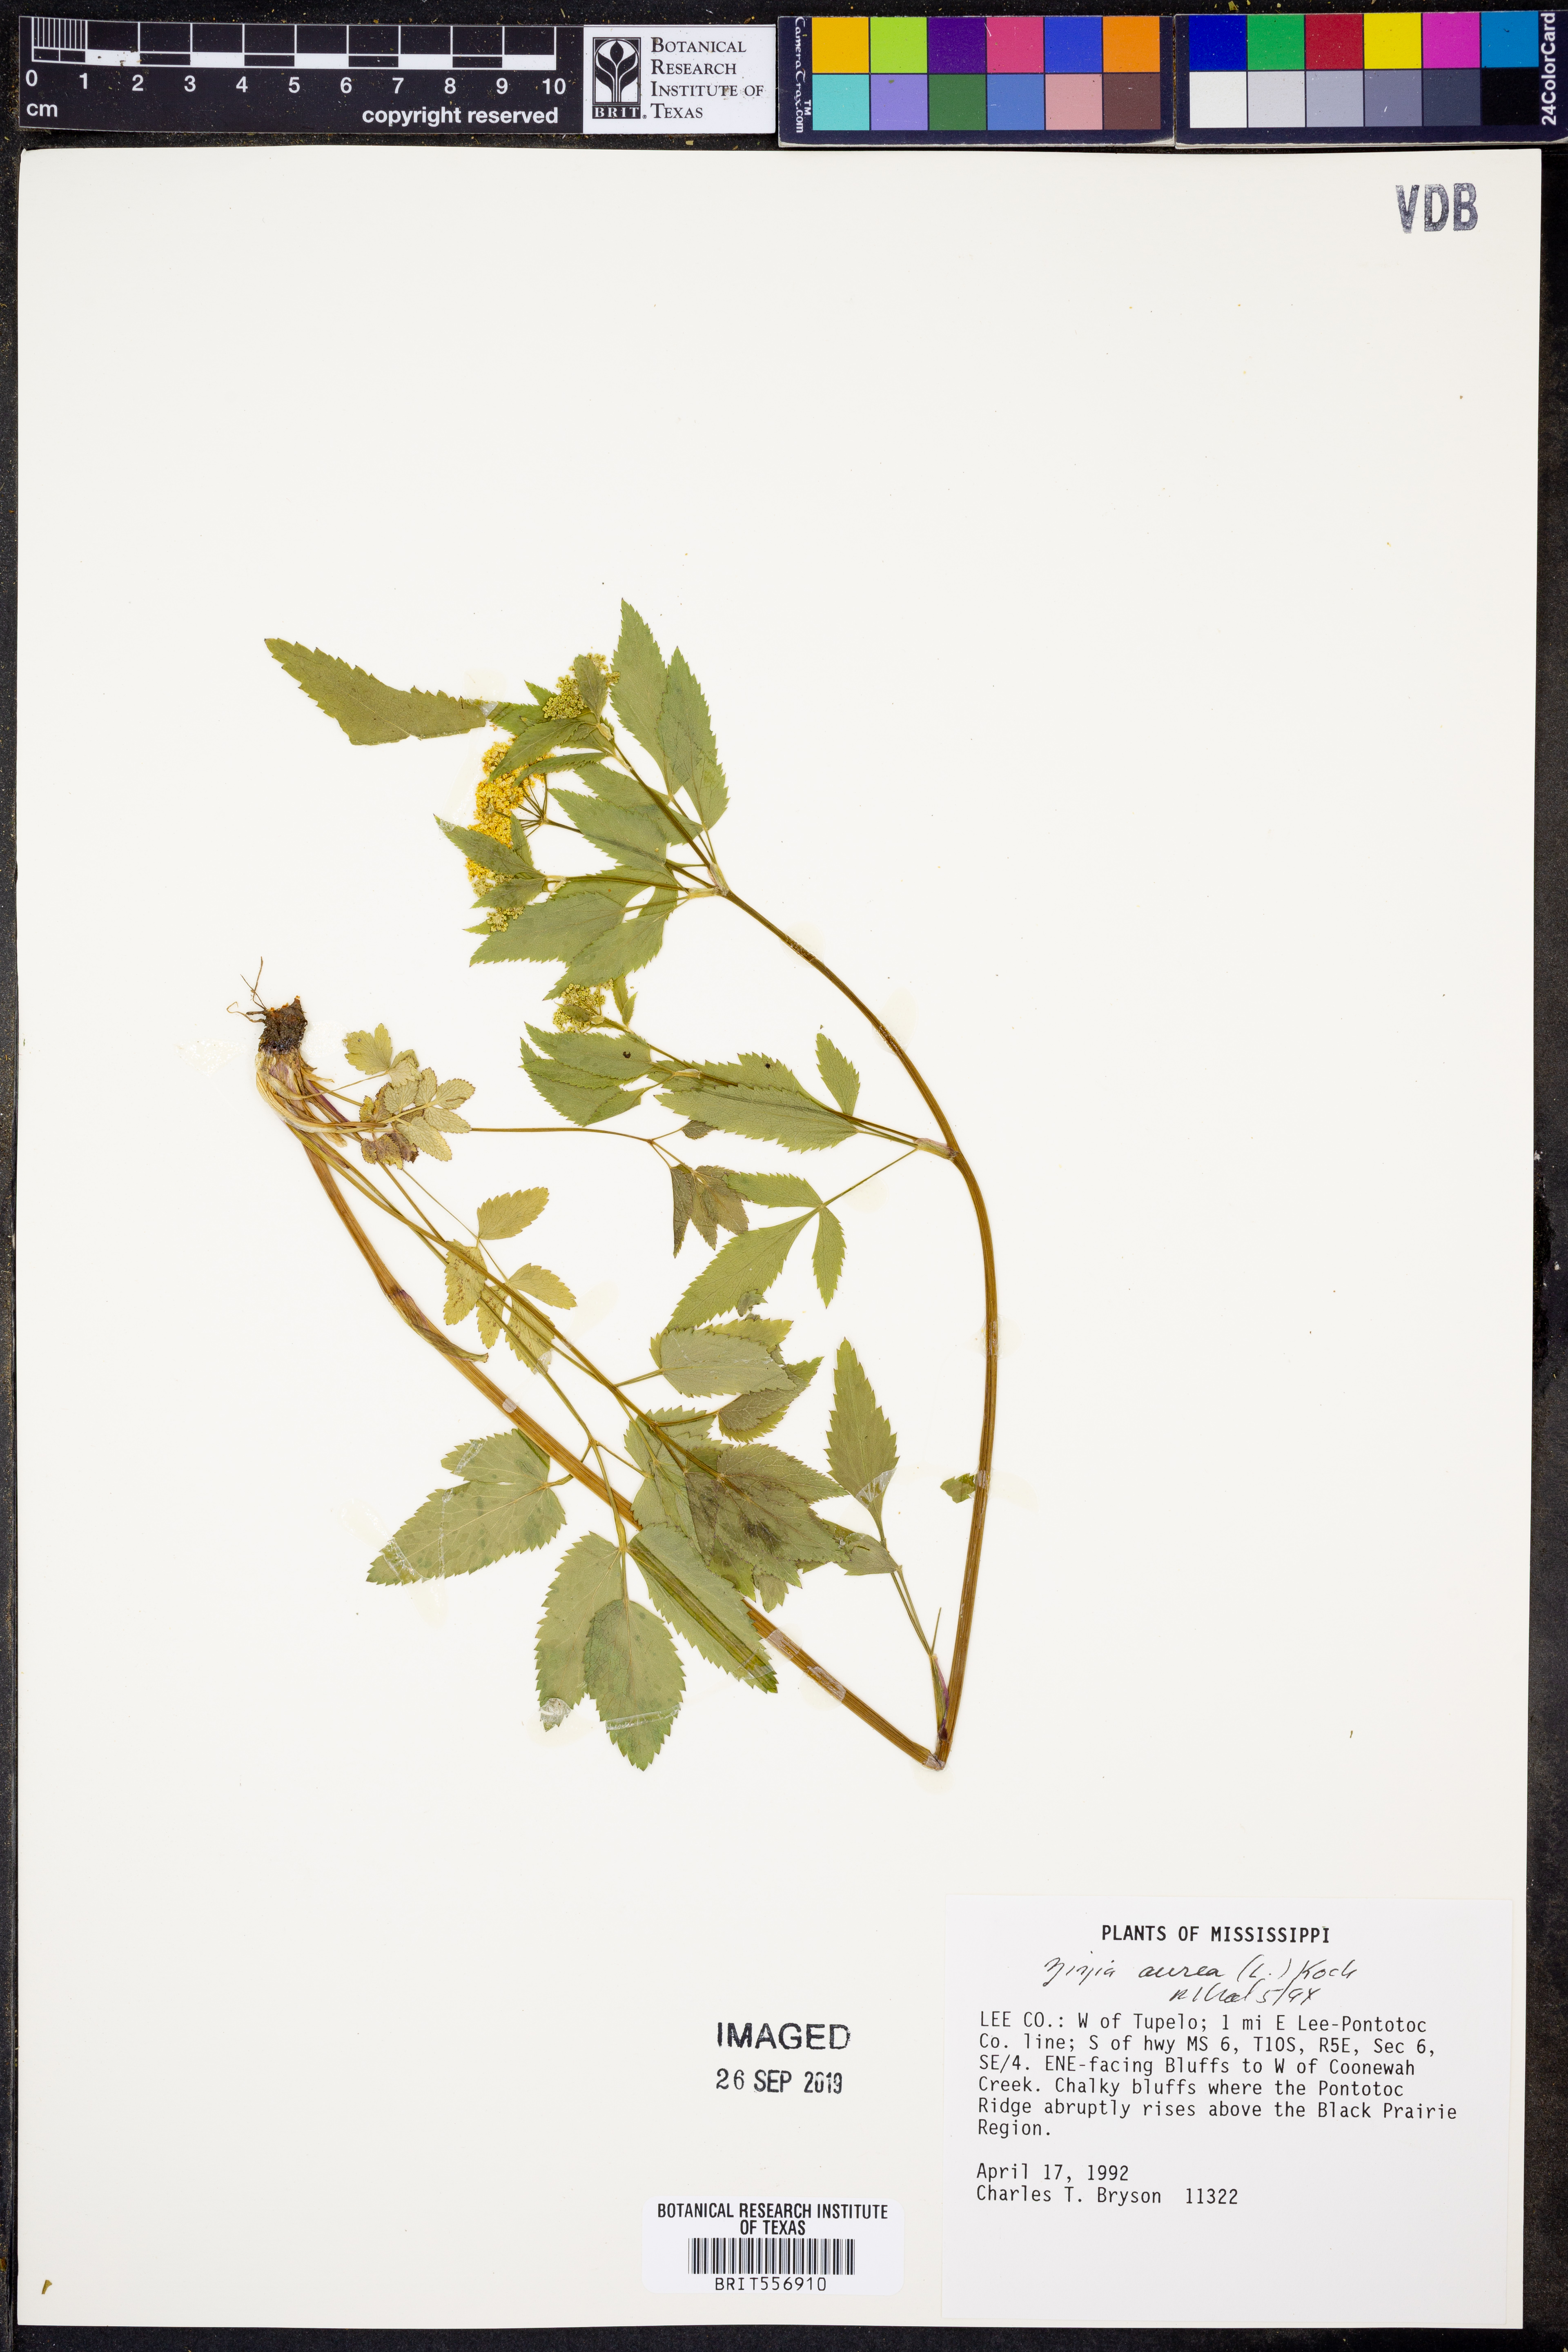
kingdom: Plantae
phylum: Tracheophyta
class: Magnoliopsida
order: Apiales
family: Apiaceae
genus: Zizia
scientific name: Zizia aurea
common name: Golden alexanders
